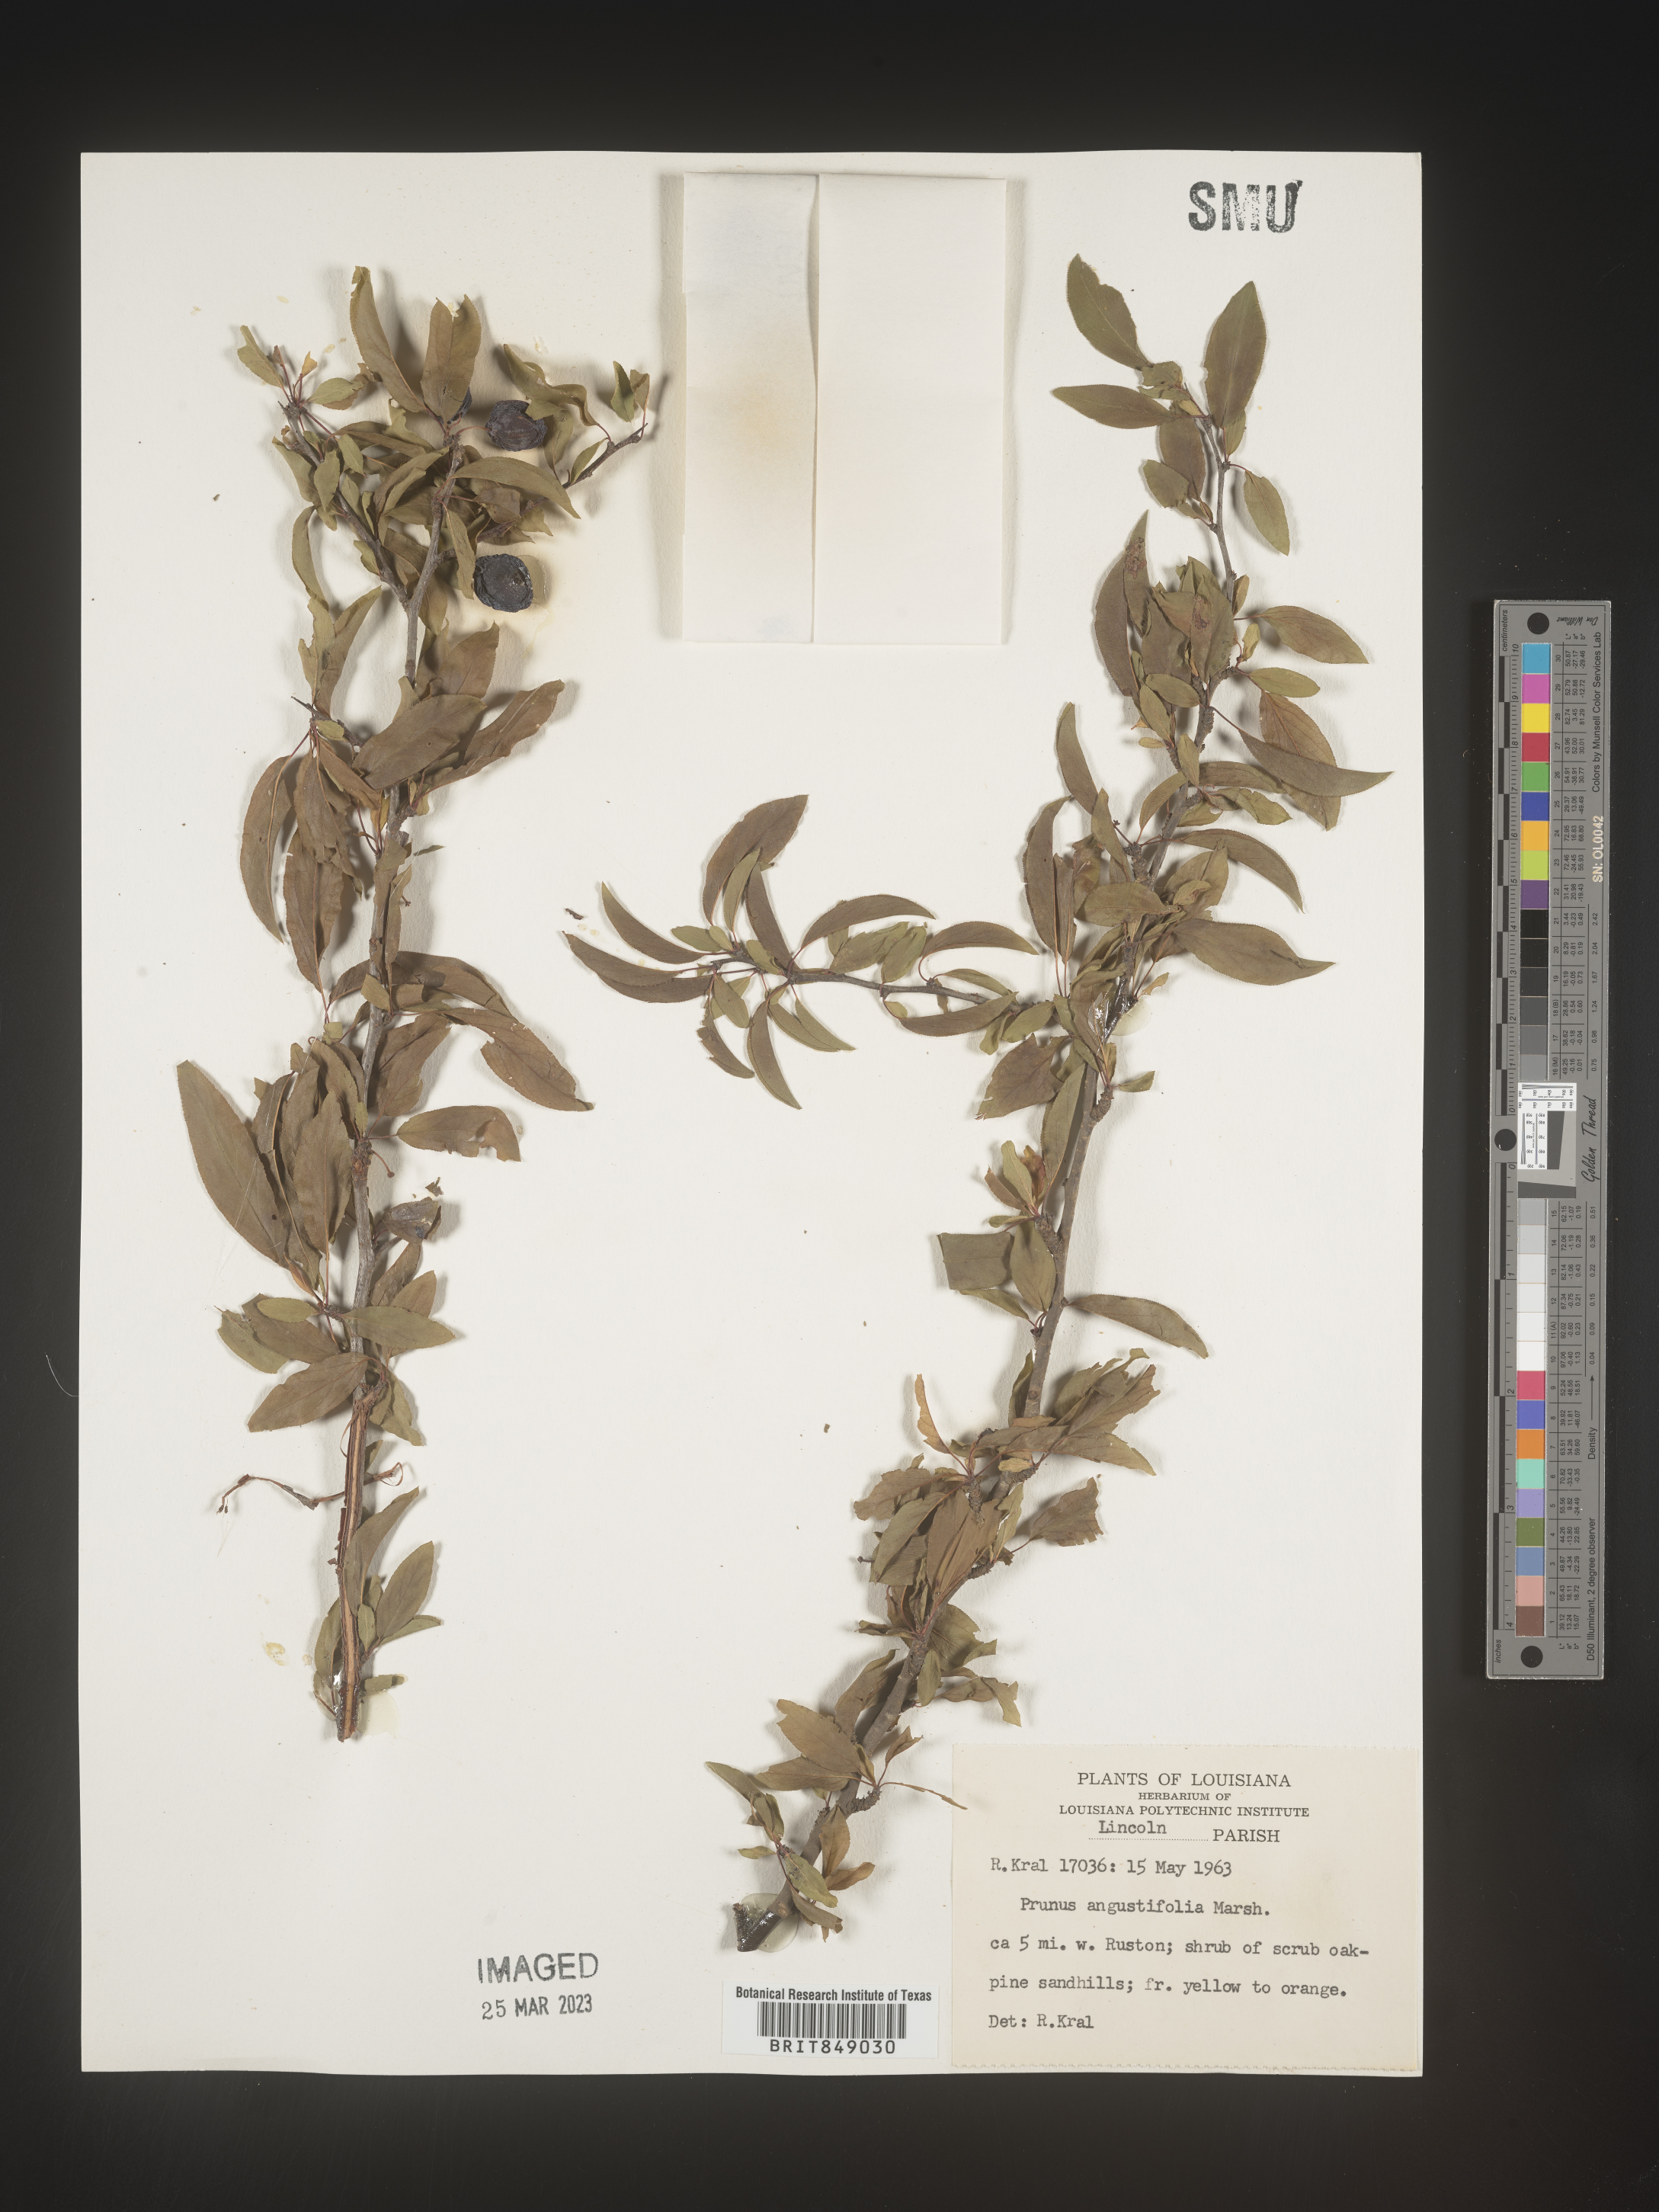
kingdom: Plantae
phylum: Tracheophyta
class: Magnoliopsida
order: Rosales
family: Rosaceae
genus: Prunus
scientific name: Prunus angustifolia
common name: Cherokee plum
